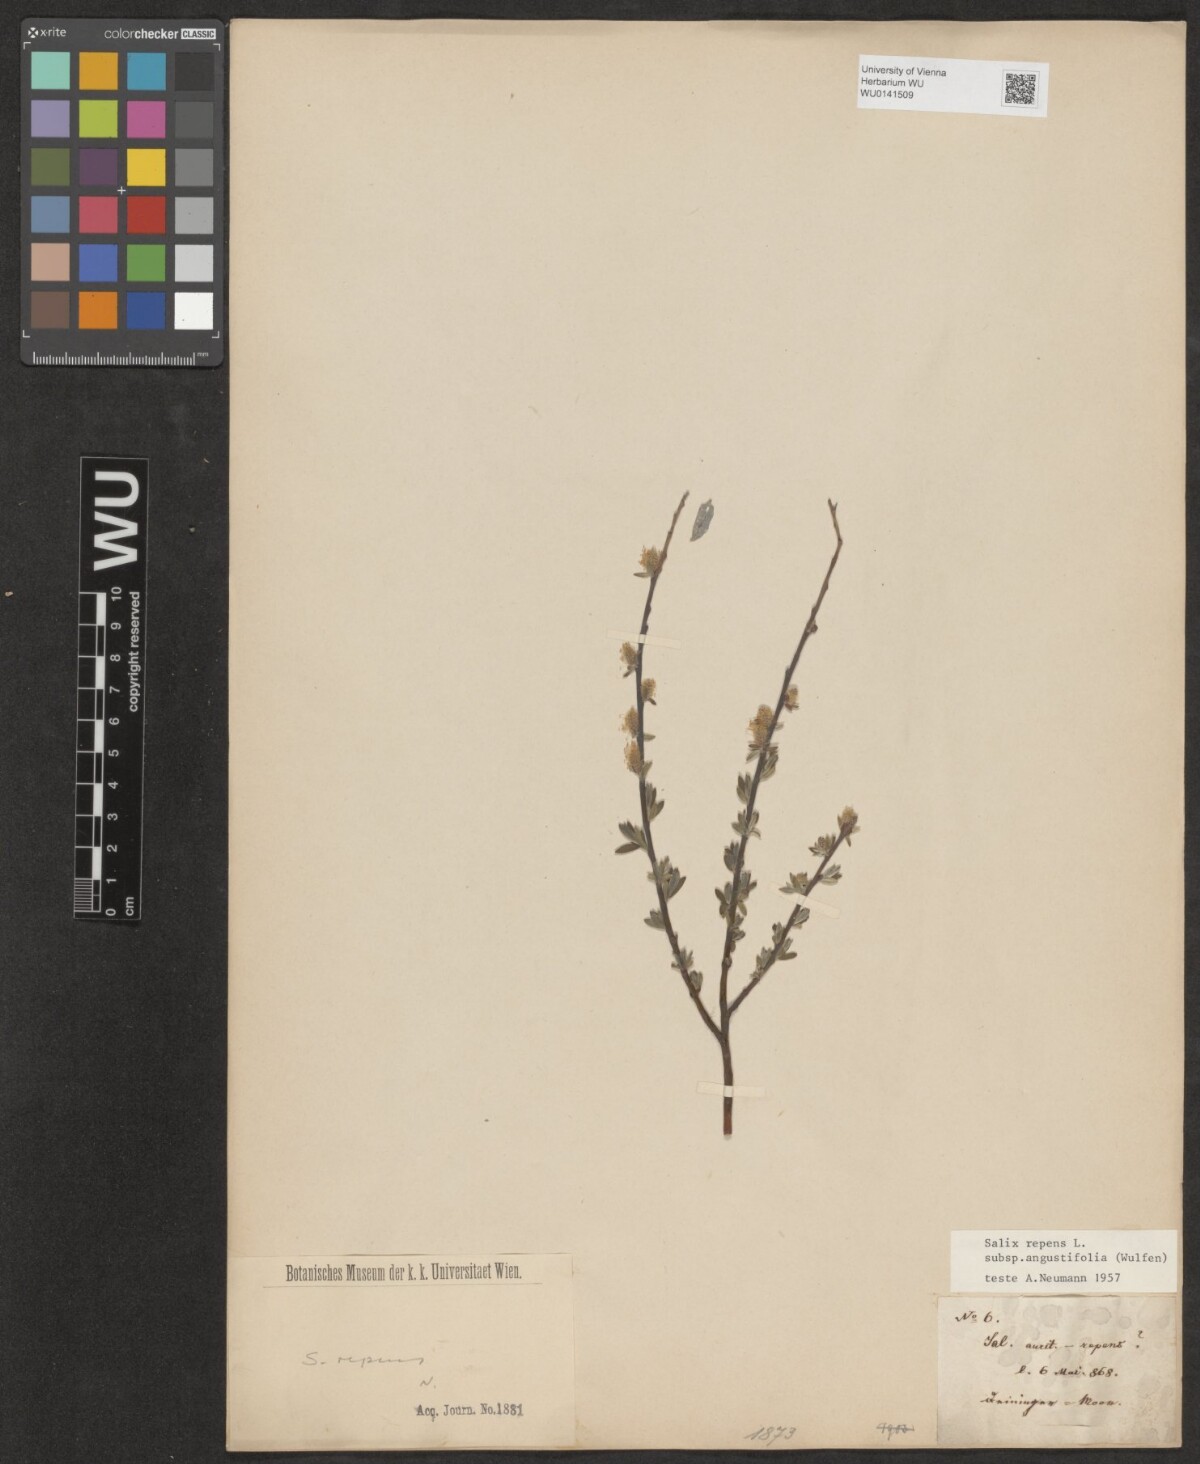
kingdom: Plantae
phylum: Tracheophyta
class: Magnoliopsida
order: Malpighiales
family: Salicaceae
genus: Salix
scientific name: Salix rosmarinifolia
